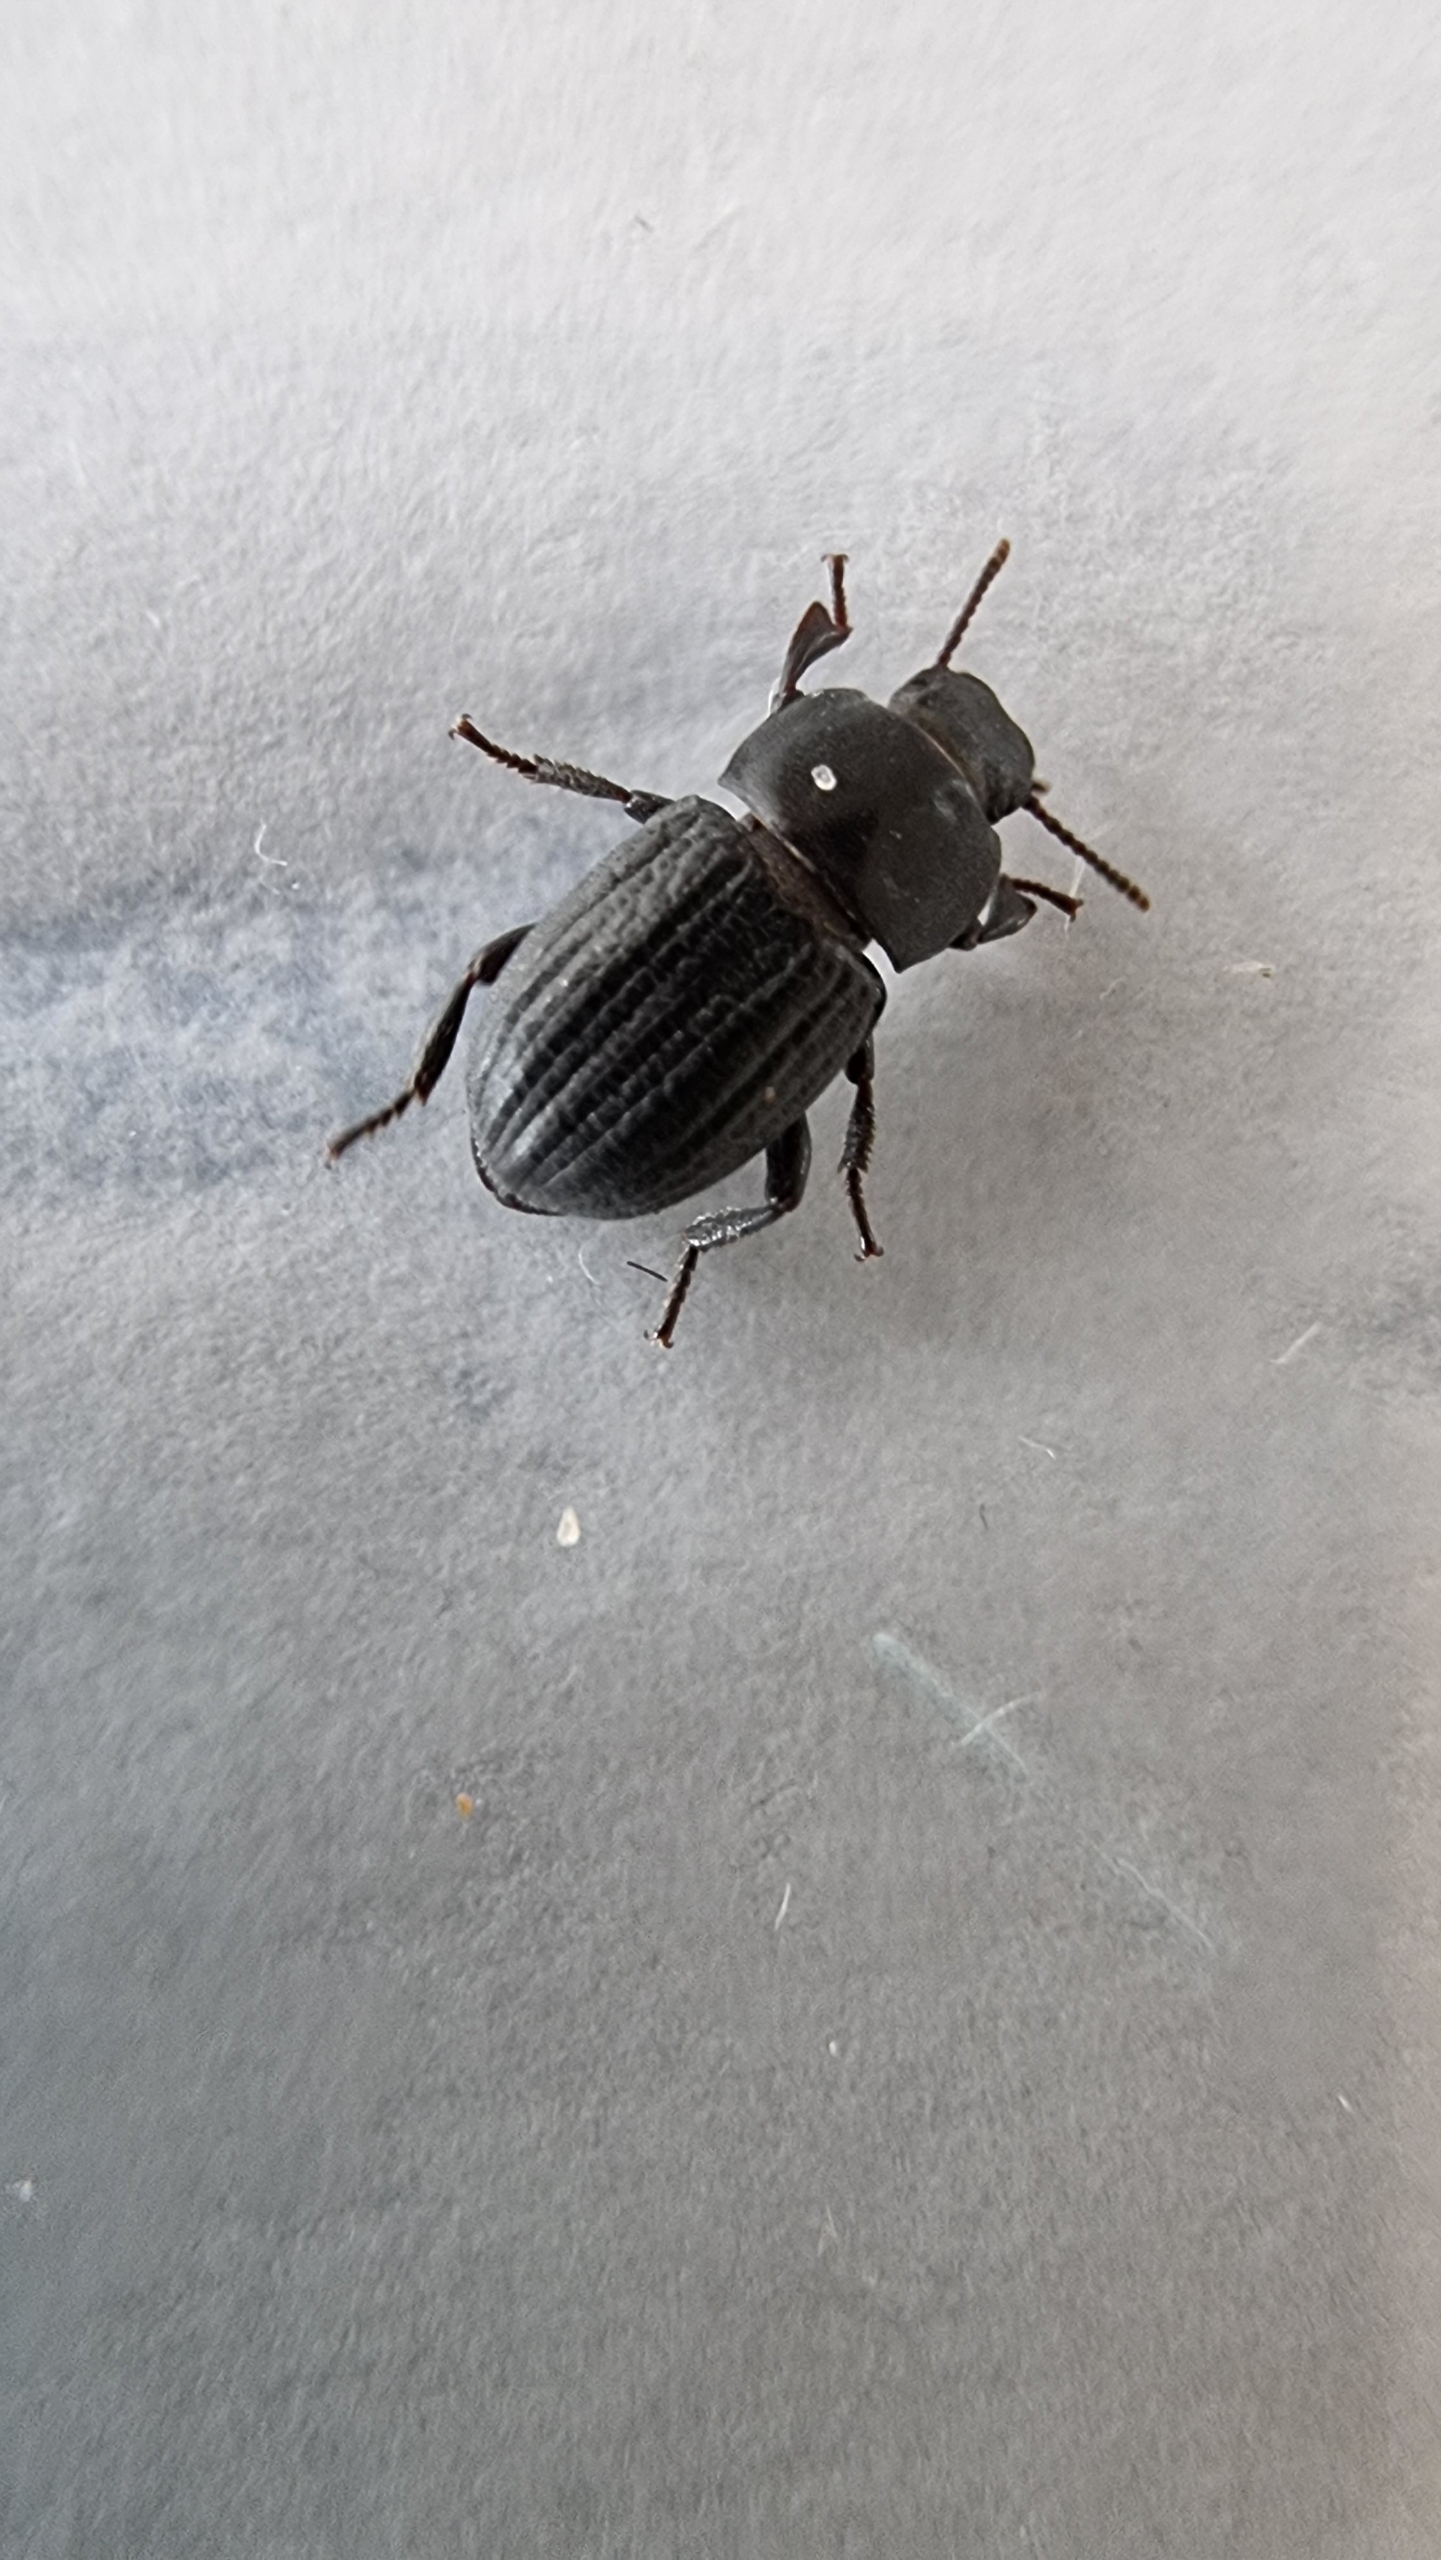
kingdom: Animalia
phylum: Arthropoda
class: Insecta
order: Coleoptera
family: Tenebrionidae
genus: Phylan
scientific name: Phylan gibbus
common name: Stor klitskyggebille
